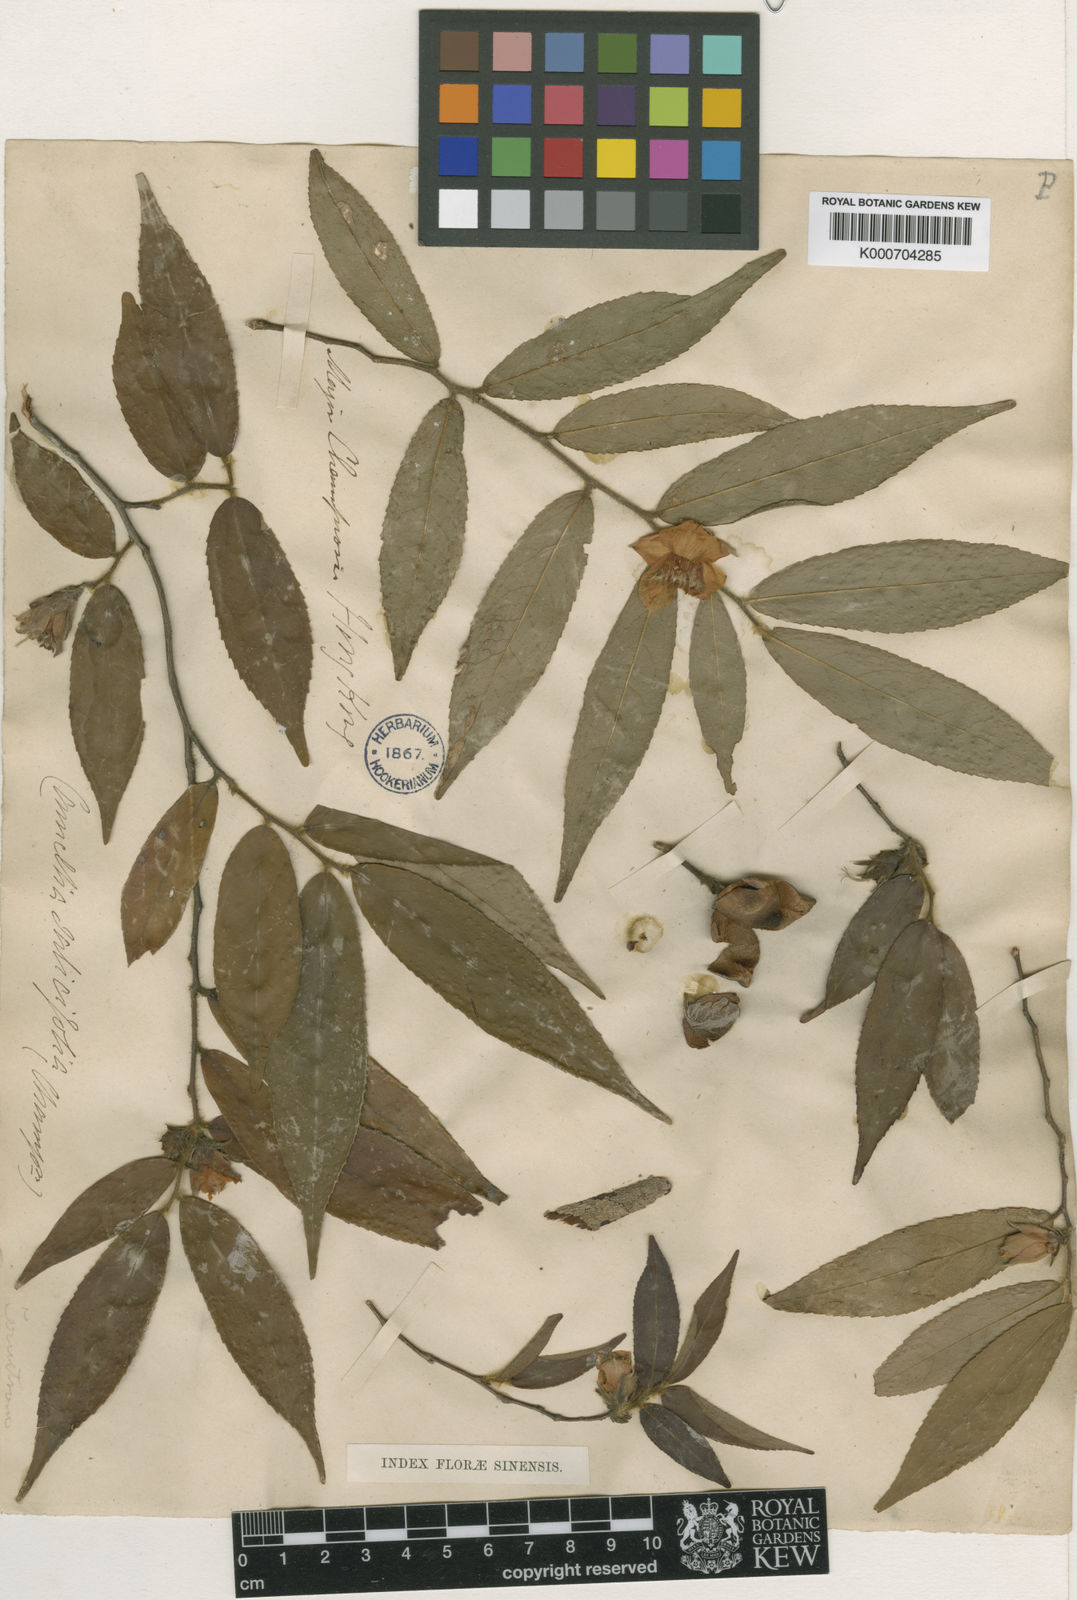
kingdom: Plantae
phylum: Tracheophyta
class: Magnoliopsida
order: Ericales
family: Theaceae
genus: Camellia
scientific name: Camellia
